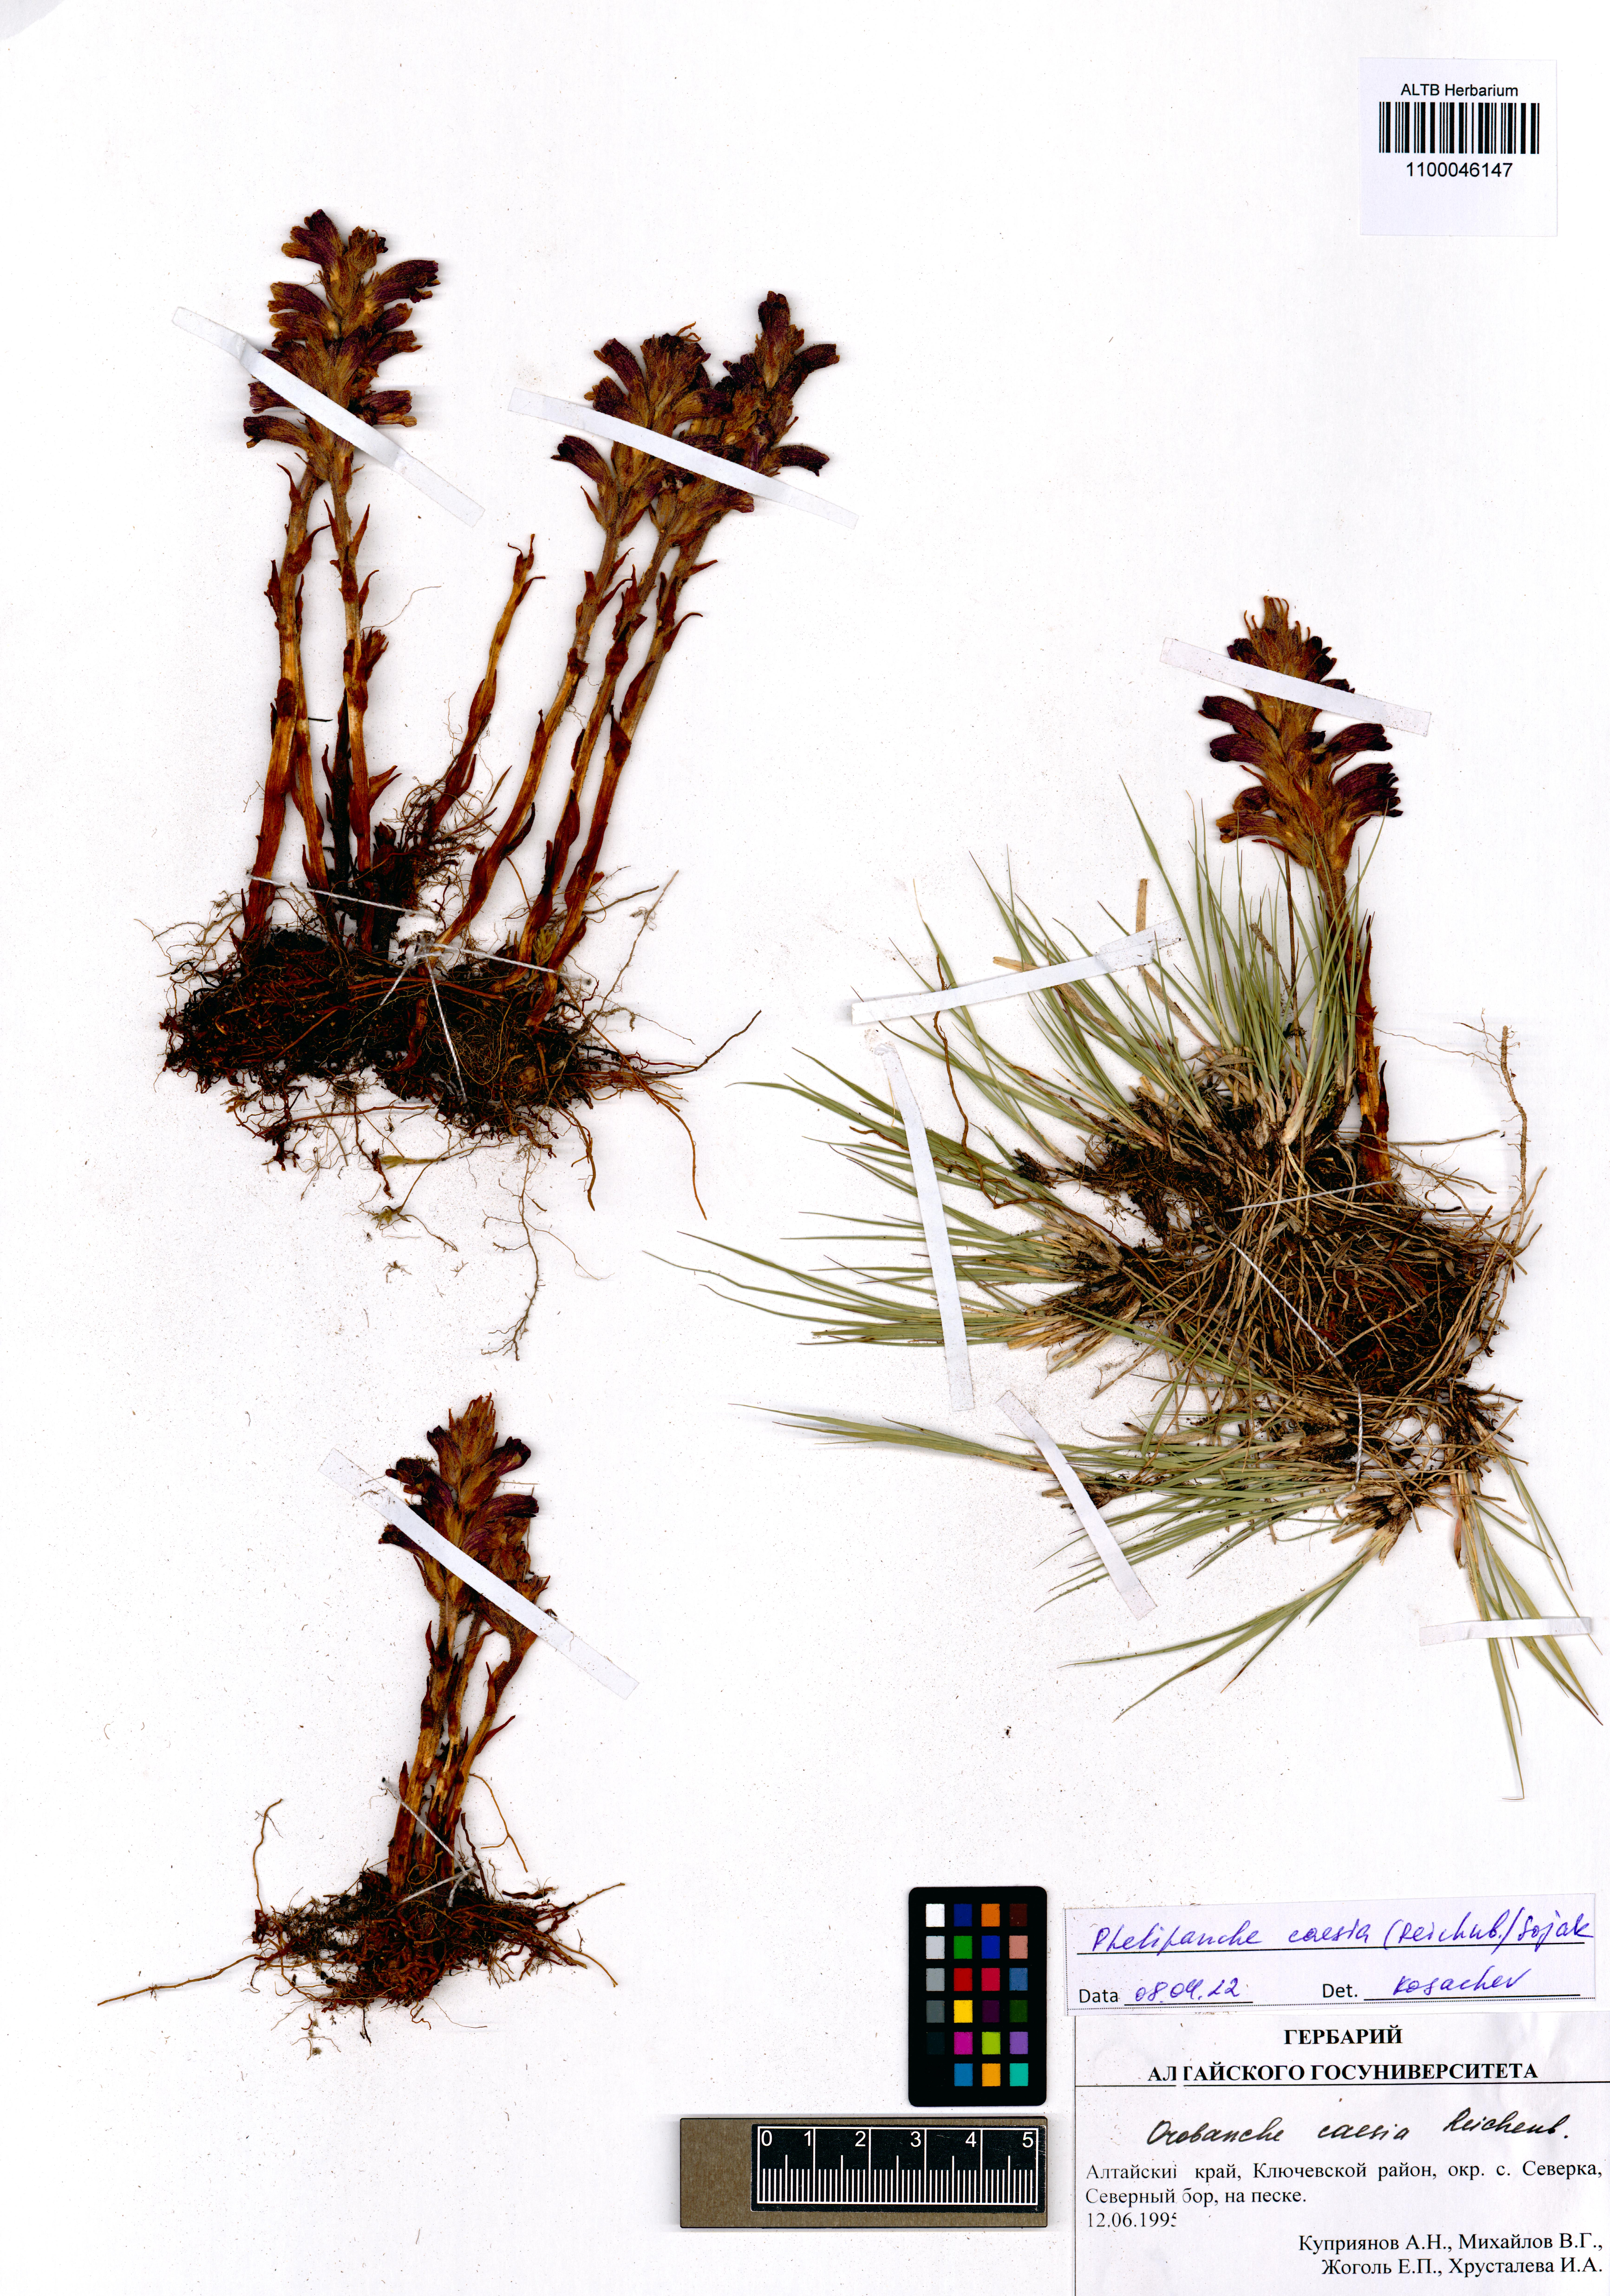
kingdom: Plantae
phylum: Tracheophyta
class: Magnoliopsida
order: Lamiales
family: Orobanchaceae
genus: Phelipanche
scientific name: Phelipanche caesia
